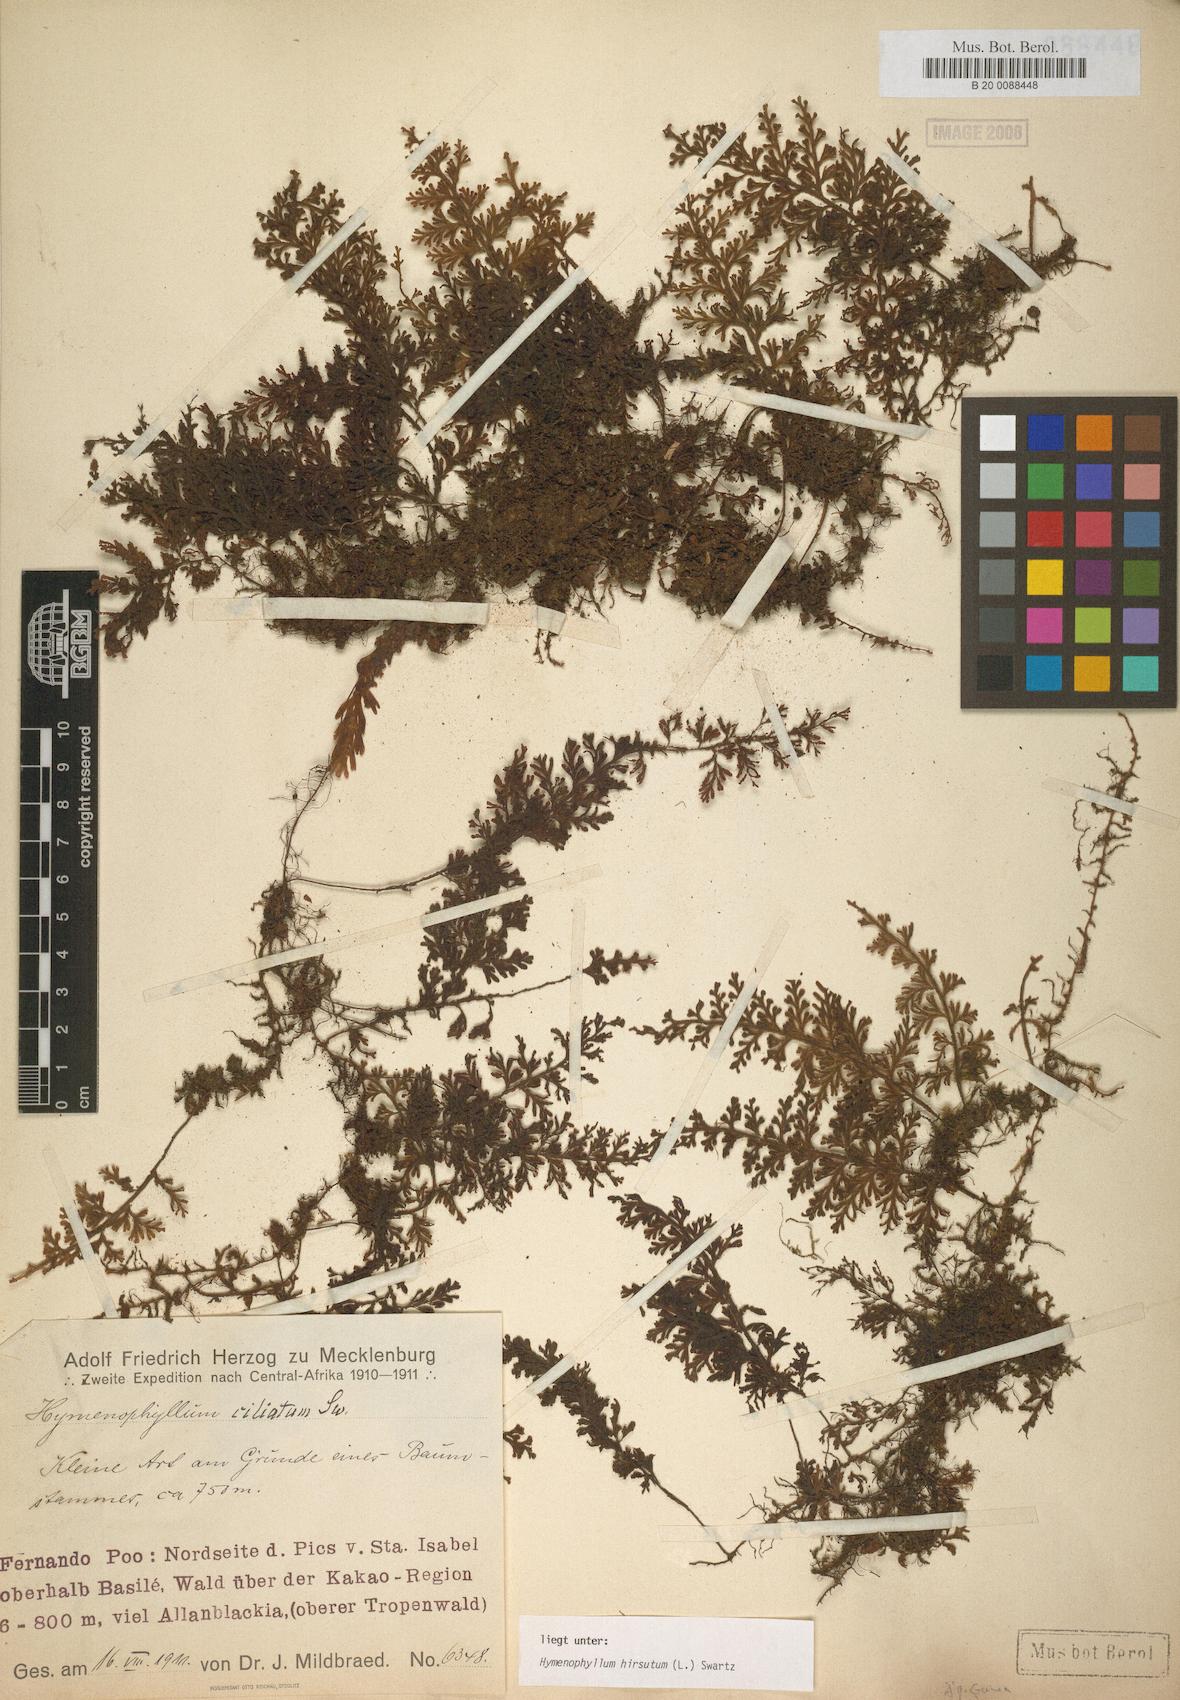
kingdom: Plantae
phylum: Tracheophyta
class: Polypodiopsida
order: Hymenophyllales
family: Hymenophyllaceae
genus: Hymenophyllum
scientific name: Hymenophyllum hirsutum
